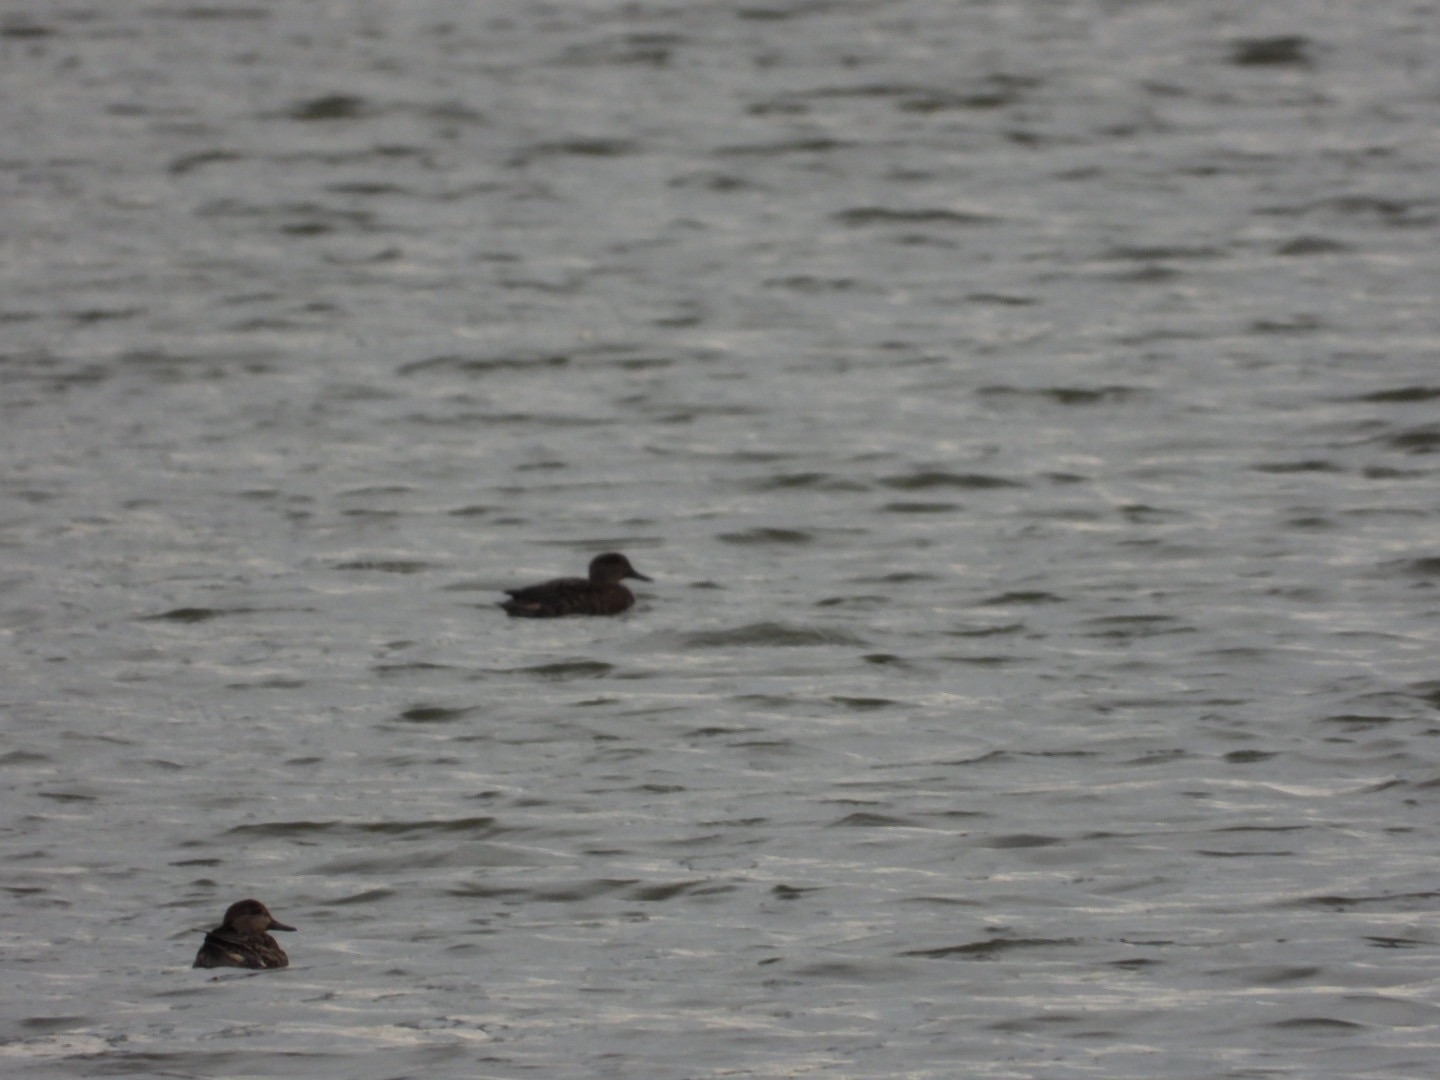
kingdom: Animalia
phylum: Chordata
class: Aves
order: Anseriformes
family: Anatidae
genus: Anas
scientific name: Anas crecca
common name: Krikand
